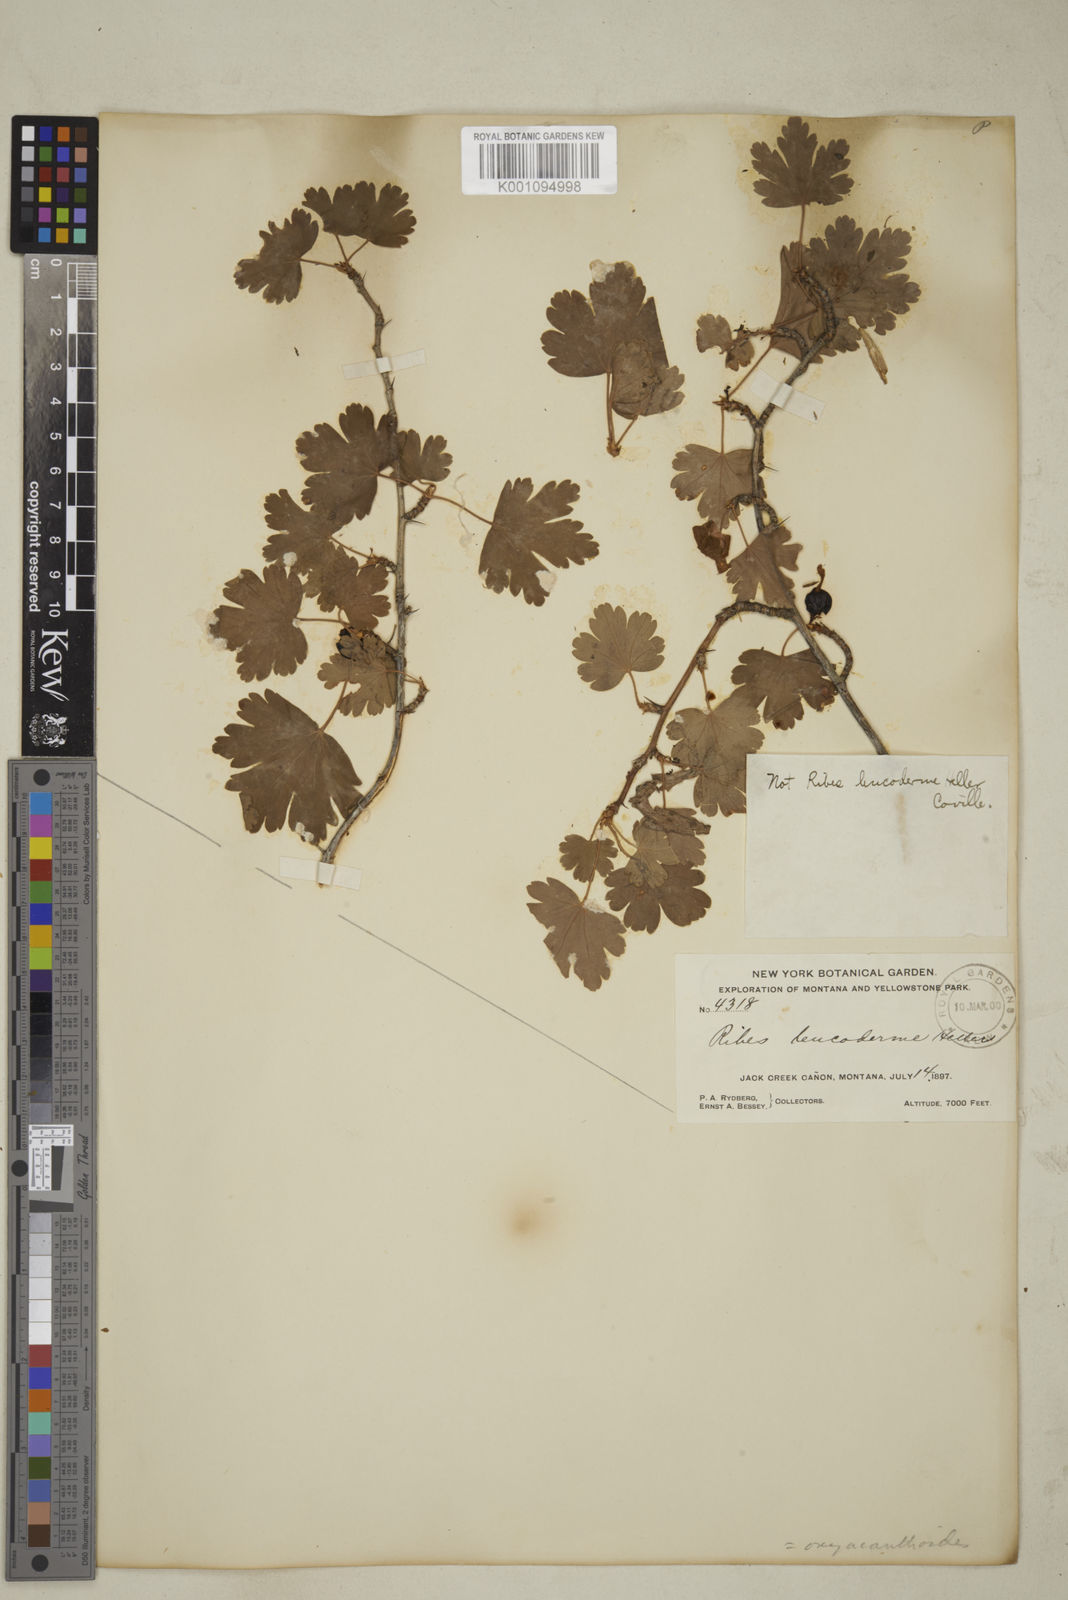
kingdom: Plantae
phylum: Tracheophyta
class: Magnoliopsida
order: Saxifragales
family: Grossulariaceae
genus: Ribes
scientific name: Ribes oxyacanthoides
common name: Northern gooseberry
